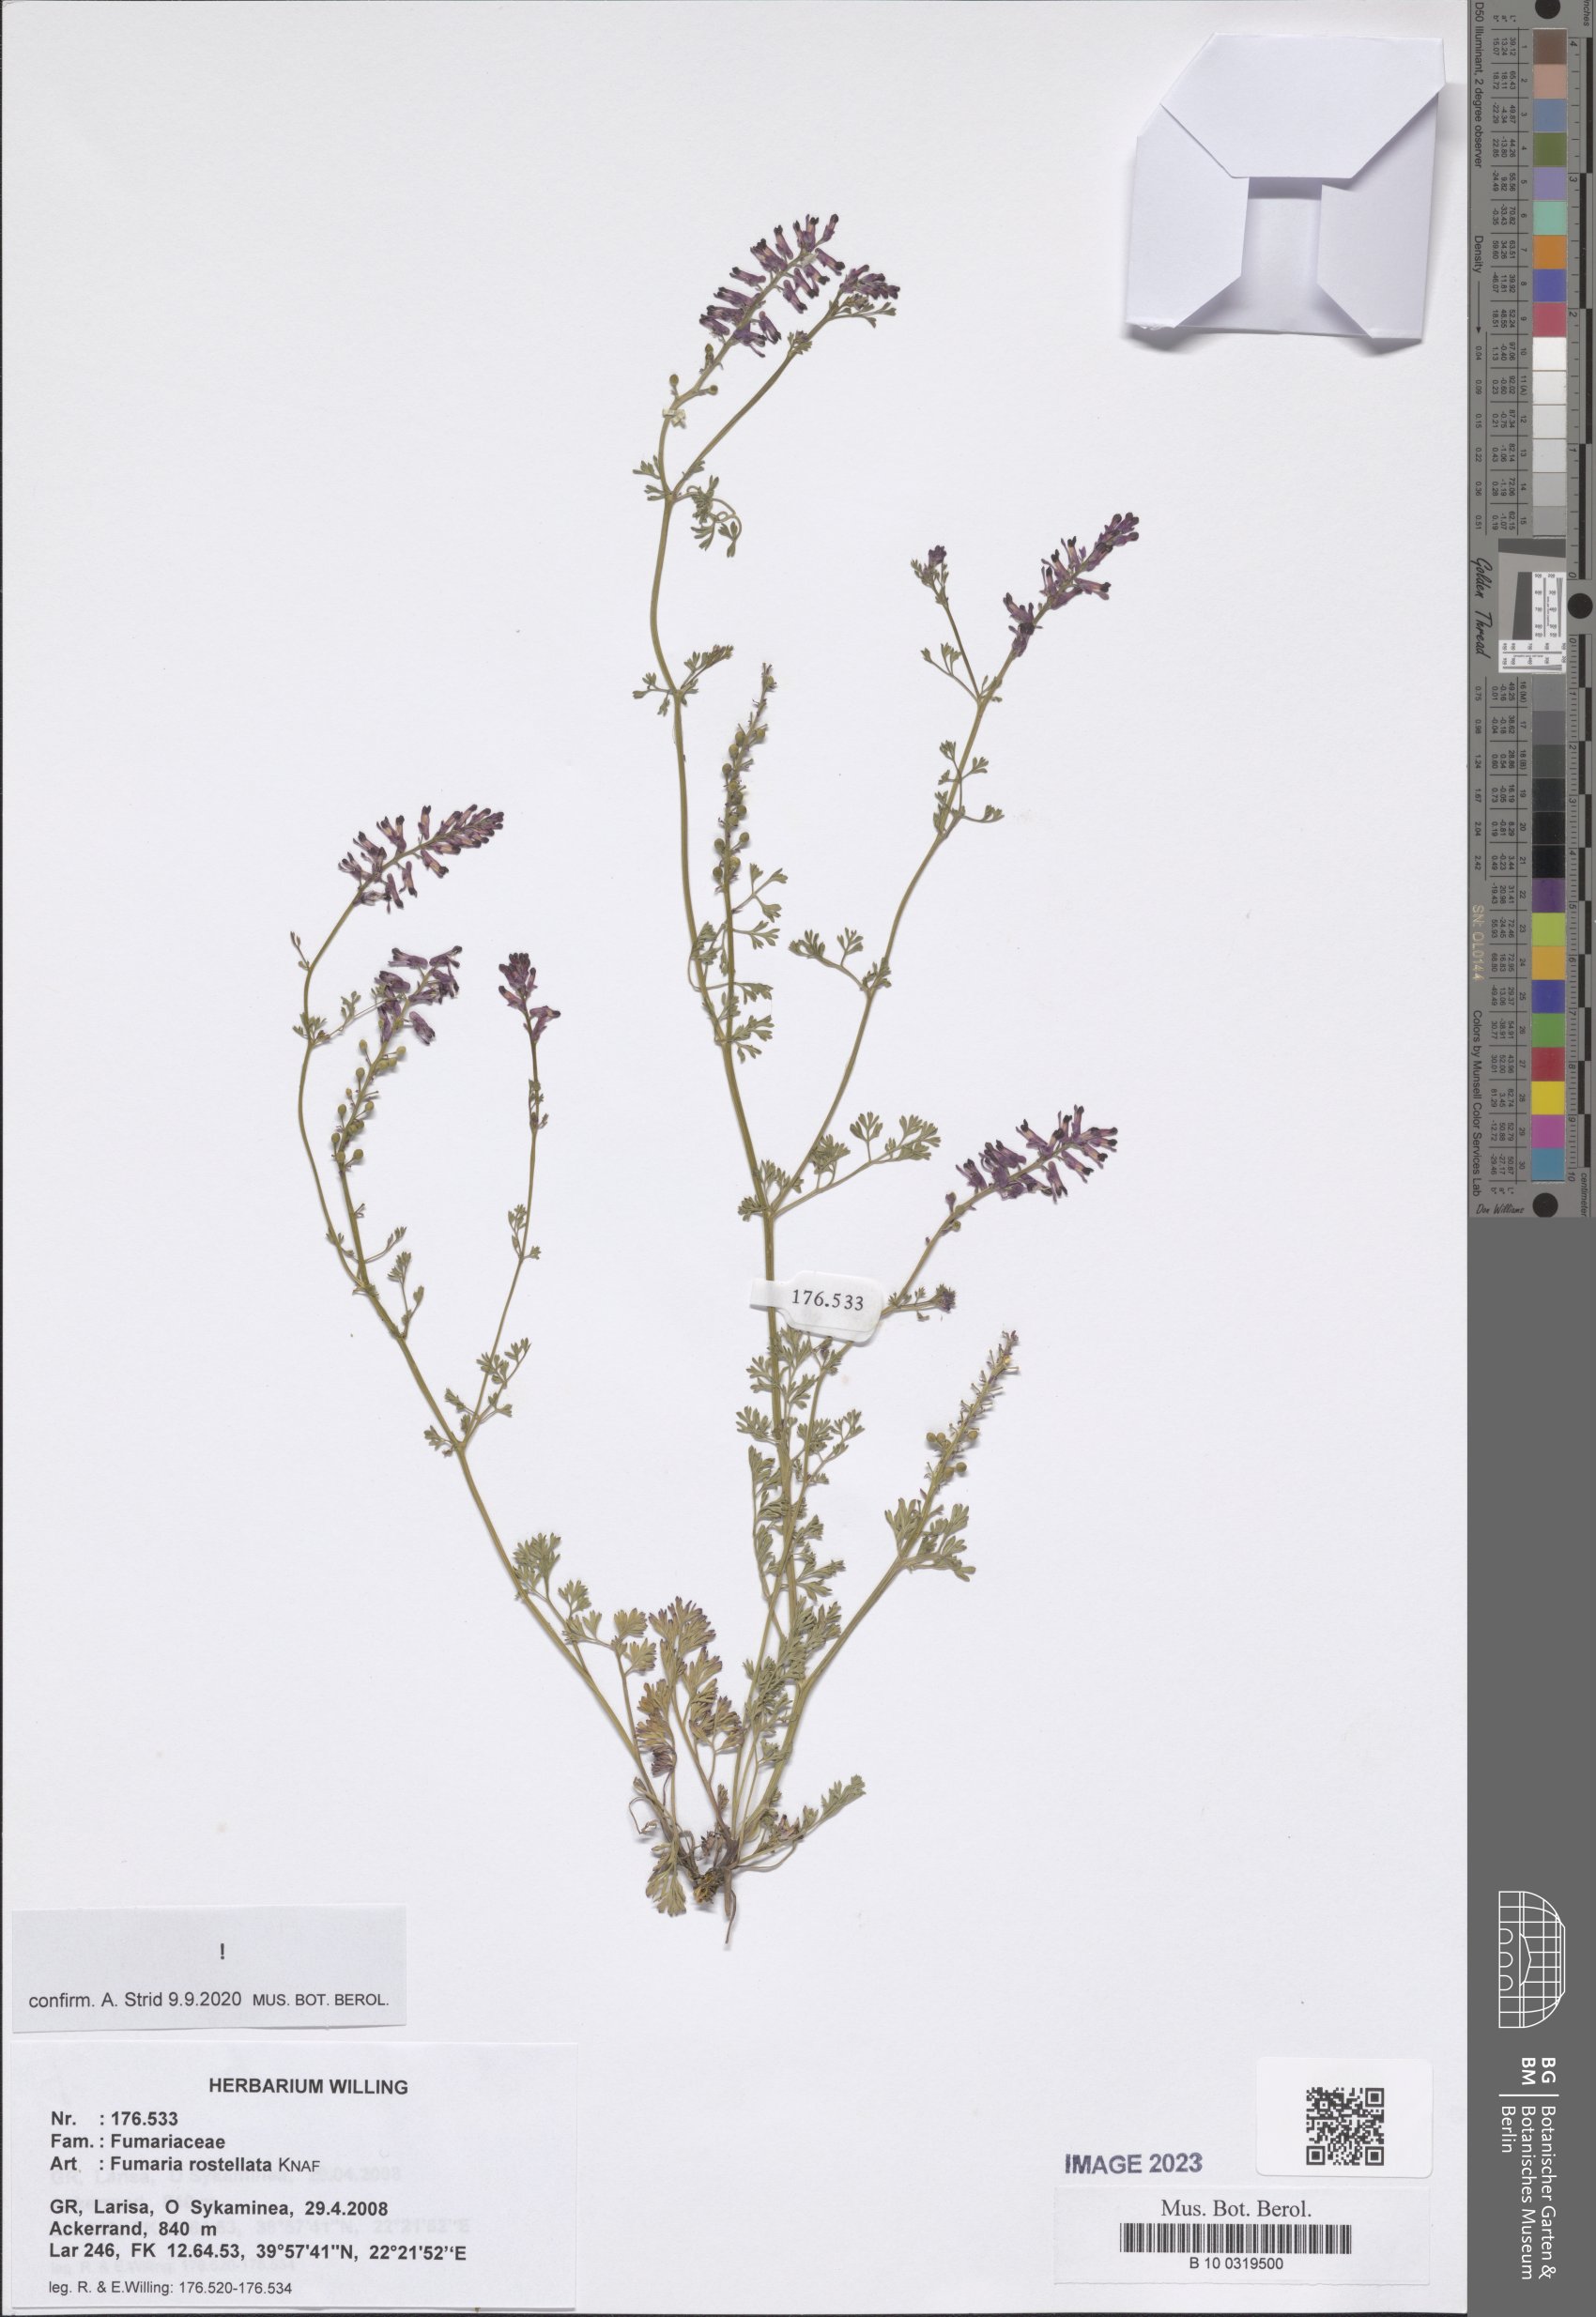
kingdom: Plantae
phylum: Tracheophyta
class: Magnoliopsida
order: Ranunculales
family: Papaveraceae
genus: Fumaria
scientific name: Fumaria rostellata
